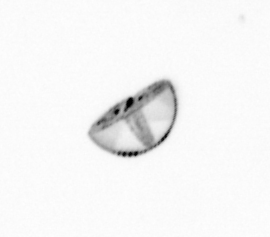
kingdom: Chromista
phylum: Ochrophyta
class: Bacillariophyceae
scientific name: Bacillariophyceae
